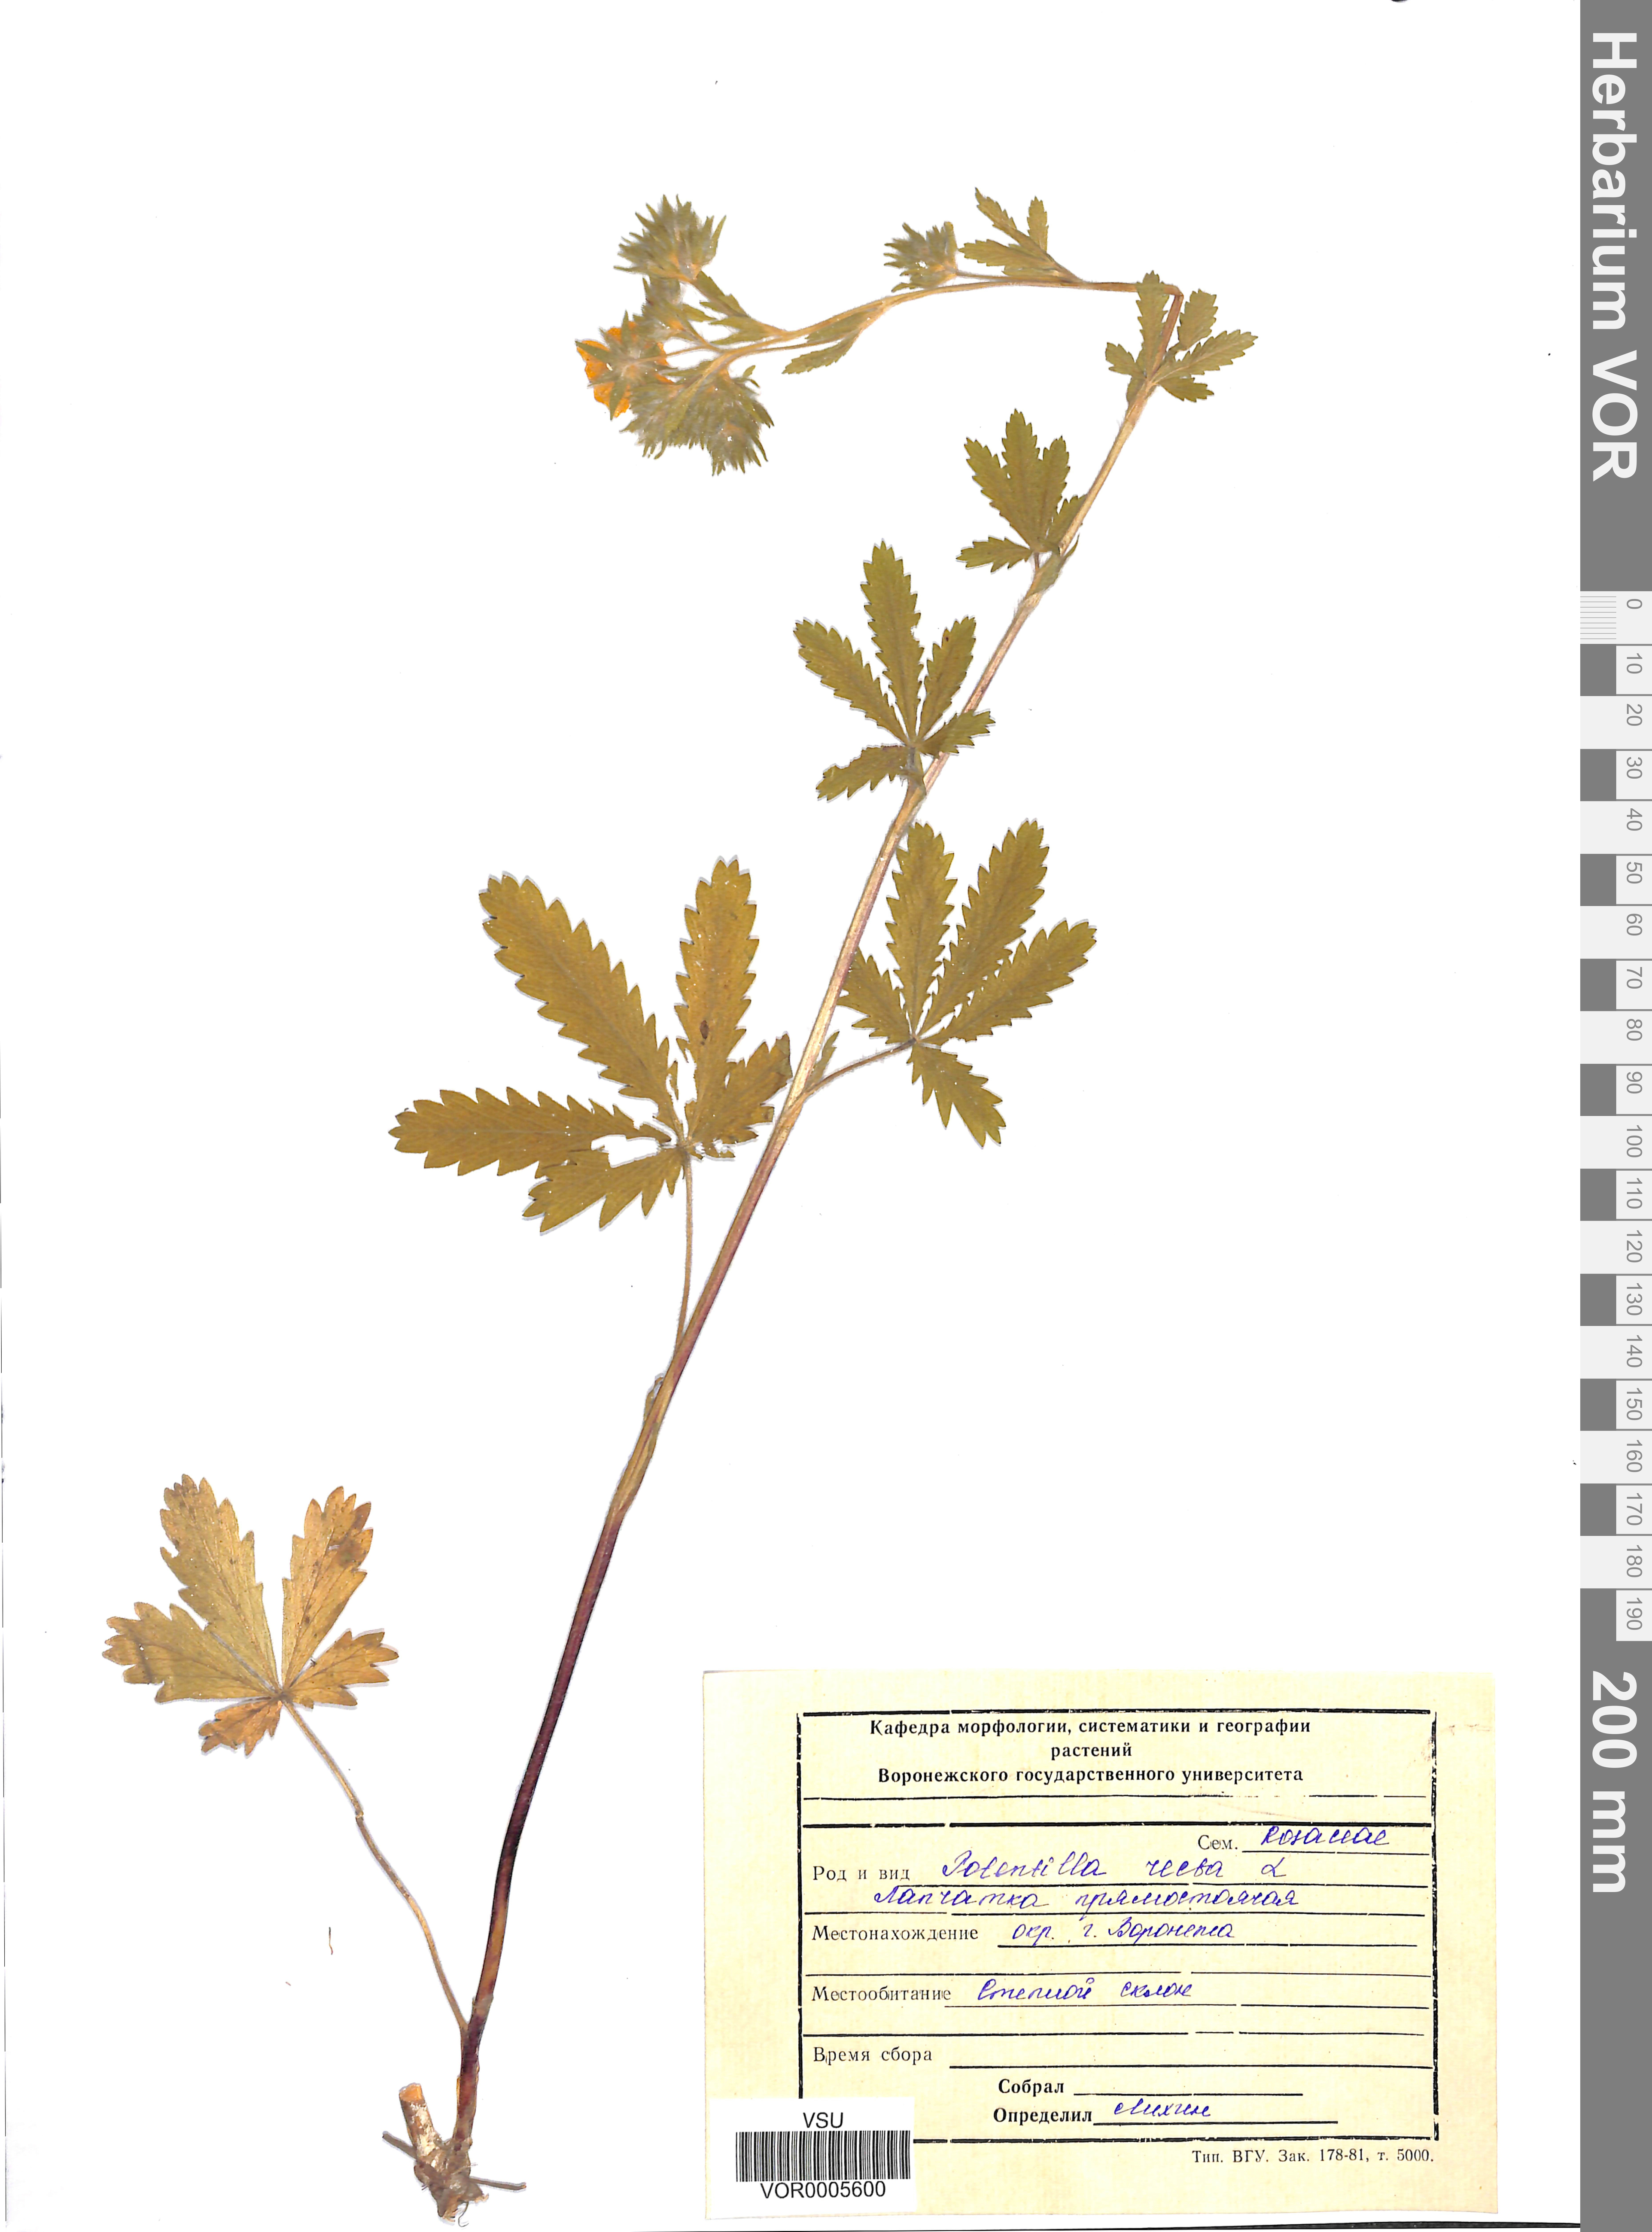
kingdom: Plantae
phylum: Tracheophyta
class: Magnoliopsida
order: Rosales
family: Rosaceae
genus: Potentilla
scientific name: Potentilla recta
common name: Sulphur cinquefoil
